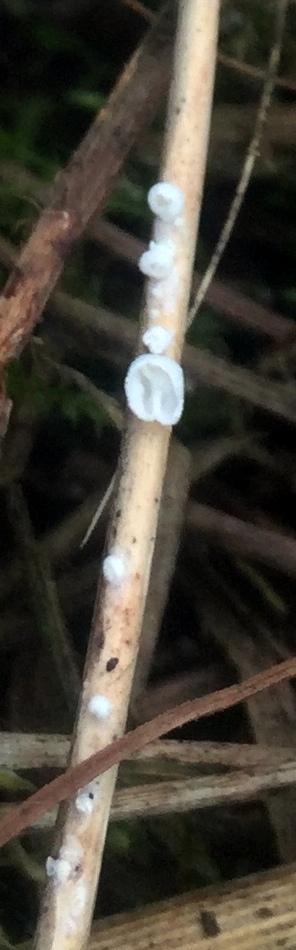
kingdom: Fungi
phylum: Basidiomycota
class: Agaricomycetes
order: Agaricales
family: Tricholomataceae
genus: Cellypha
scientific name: Cellypha goldbachii
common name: dråbeskål
